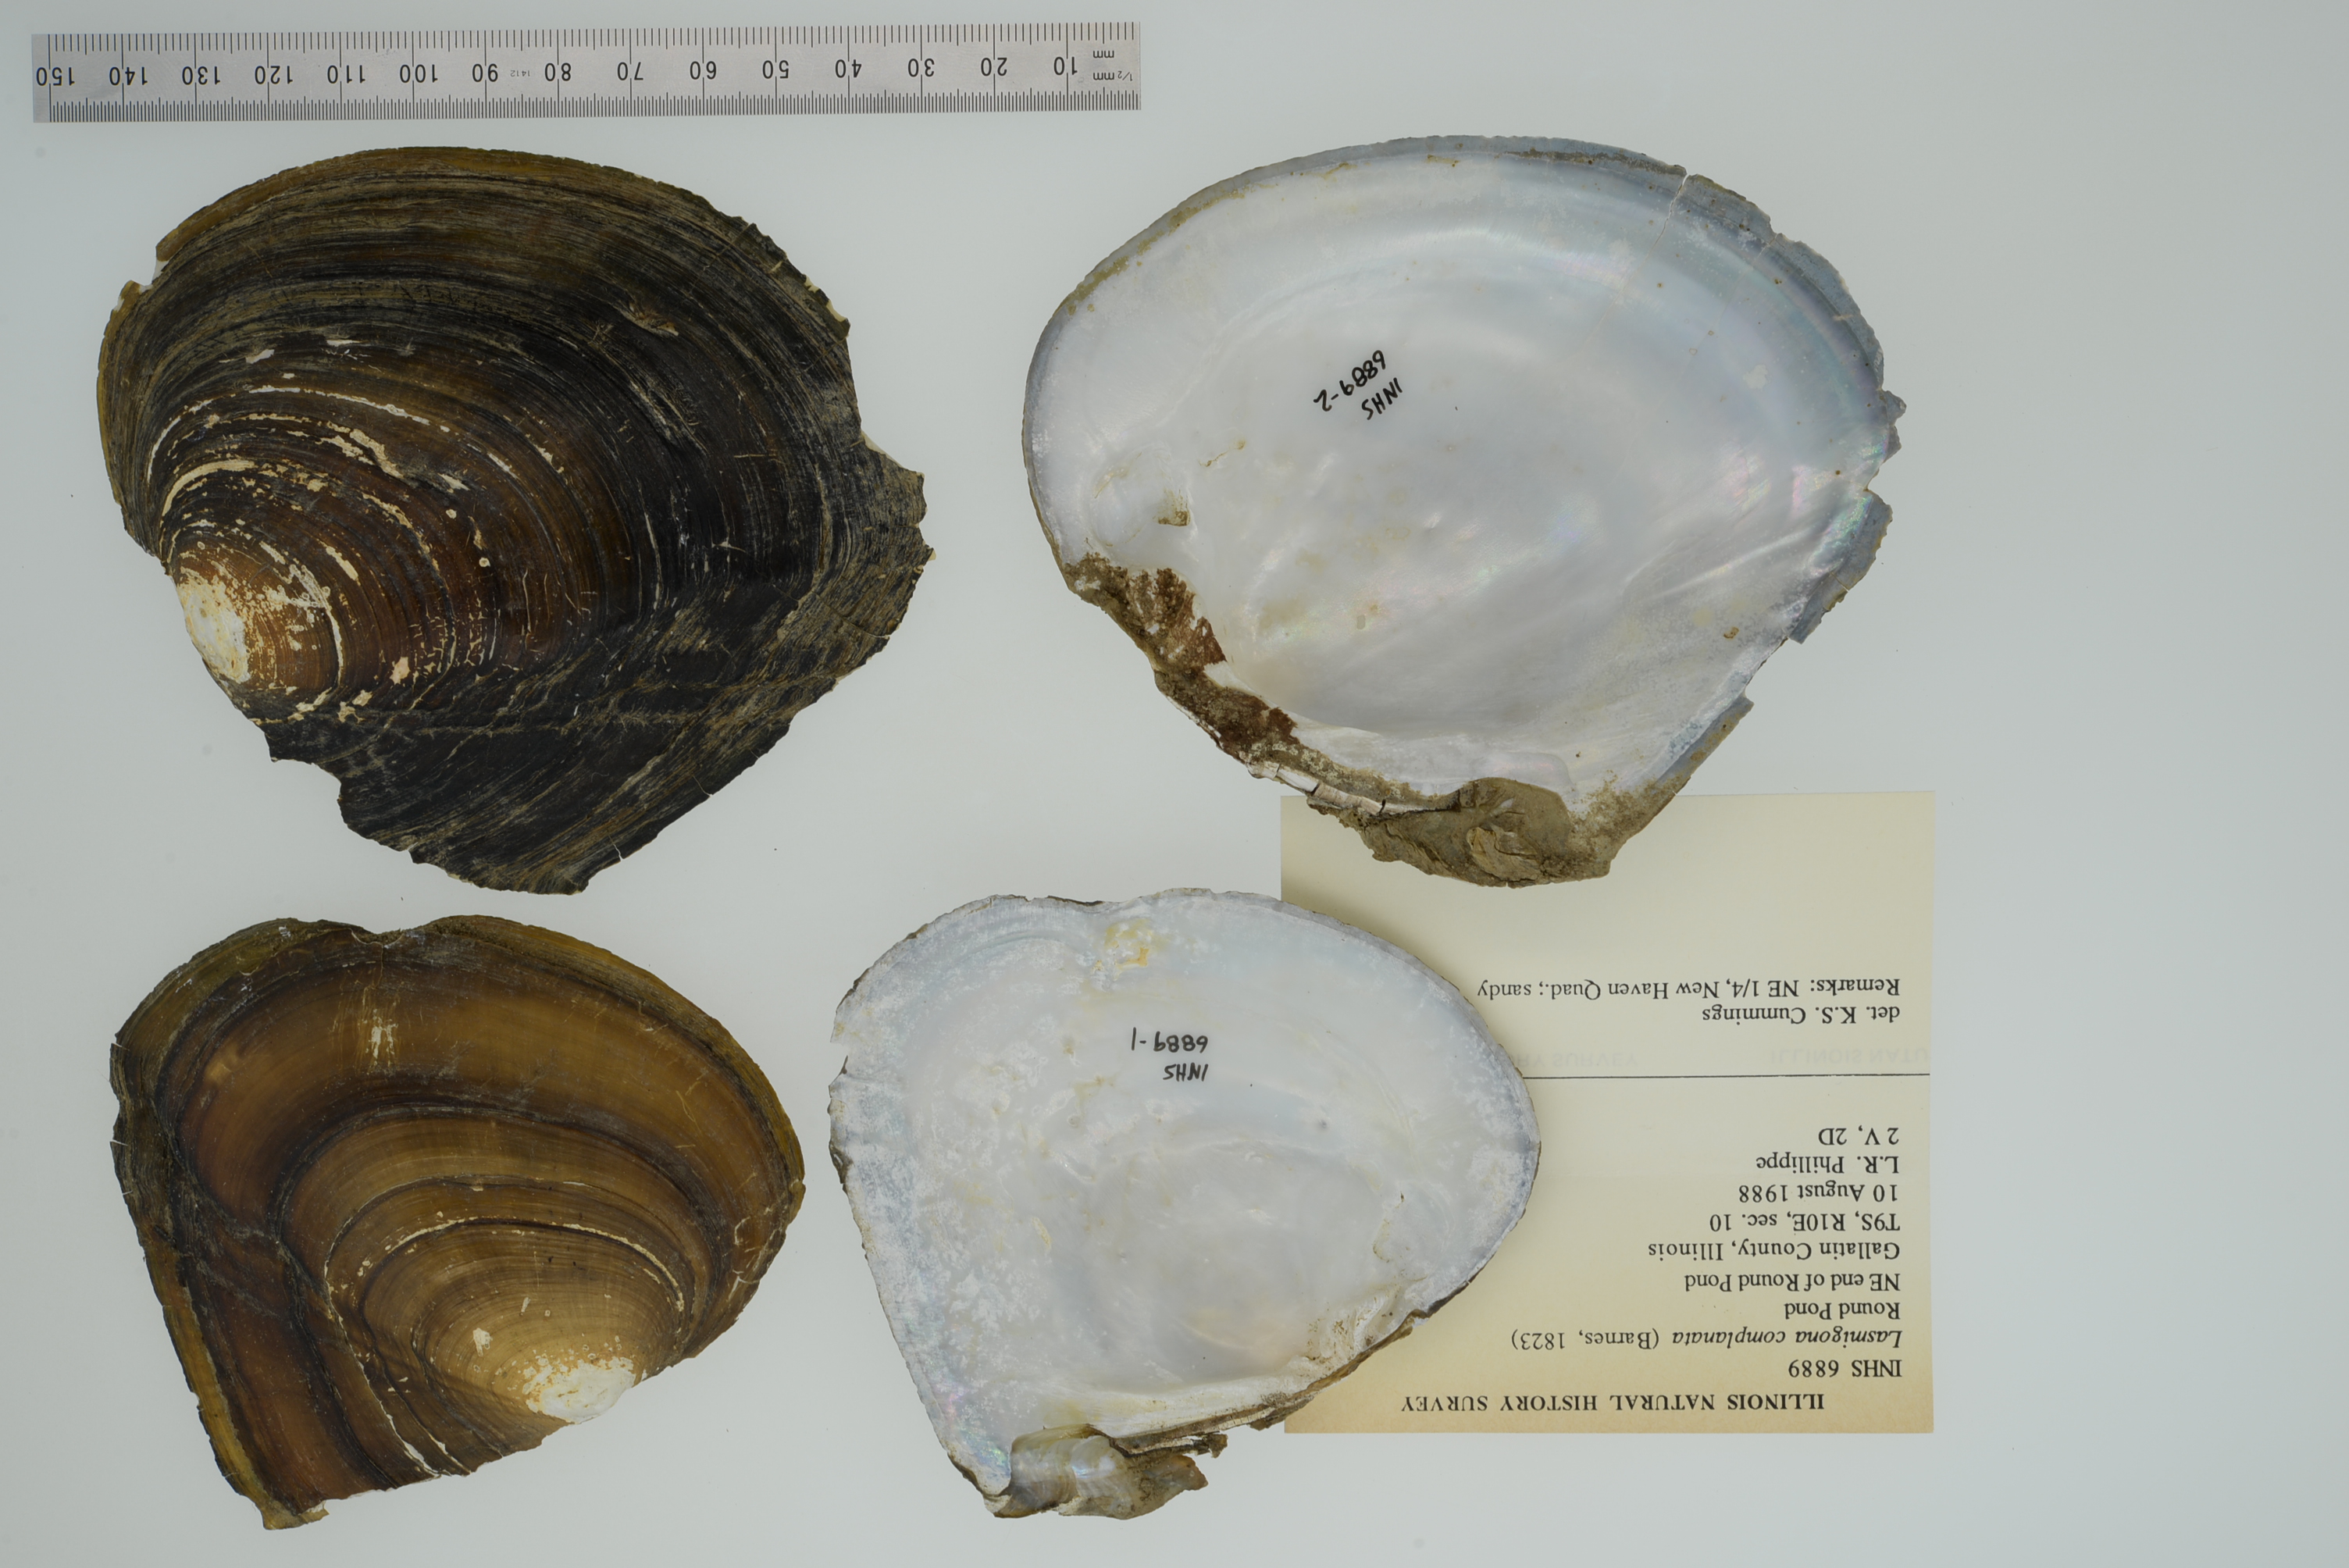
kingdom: Animalia
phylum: Mollusca
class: Bivalvia
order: Unionida
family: Unionidae
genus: Lampsilis
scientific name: Lampsilis cardium
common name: Plain pocketbook
